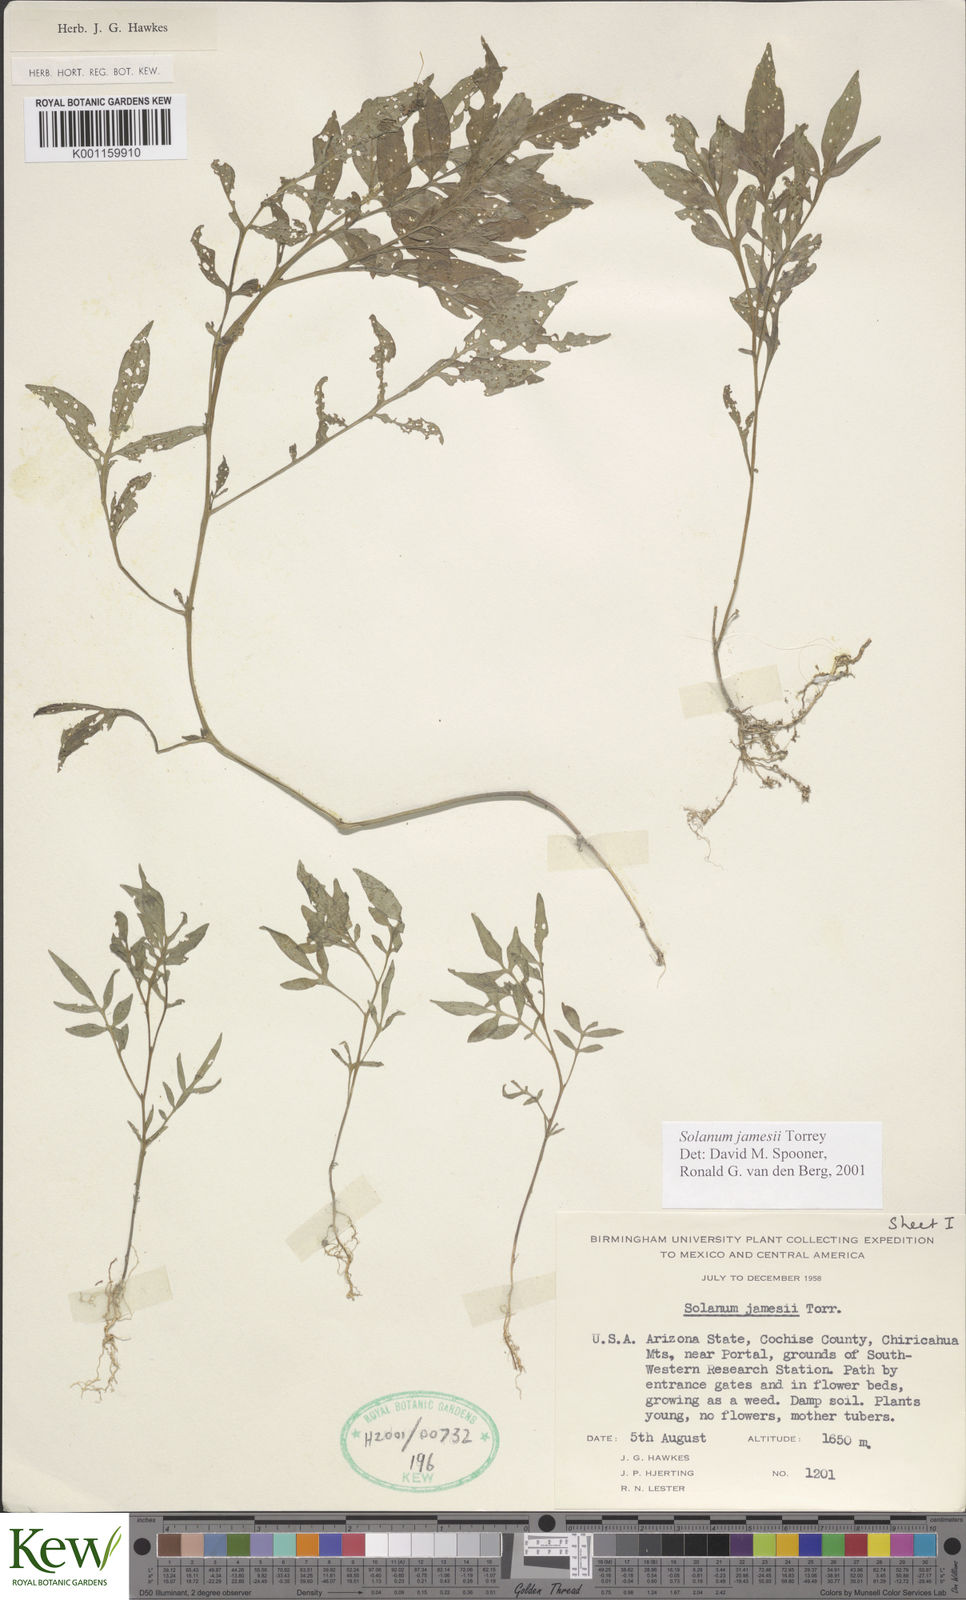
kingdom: Plantae
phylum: Tracheophyta
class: Magnoliopsida
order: Solanales
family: Solanaceae
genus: Solanum
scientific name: Solanum jamesii
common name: Wild potato
